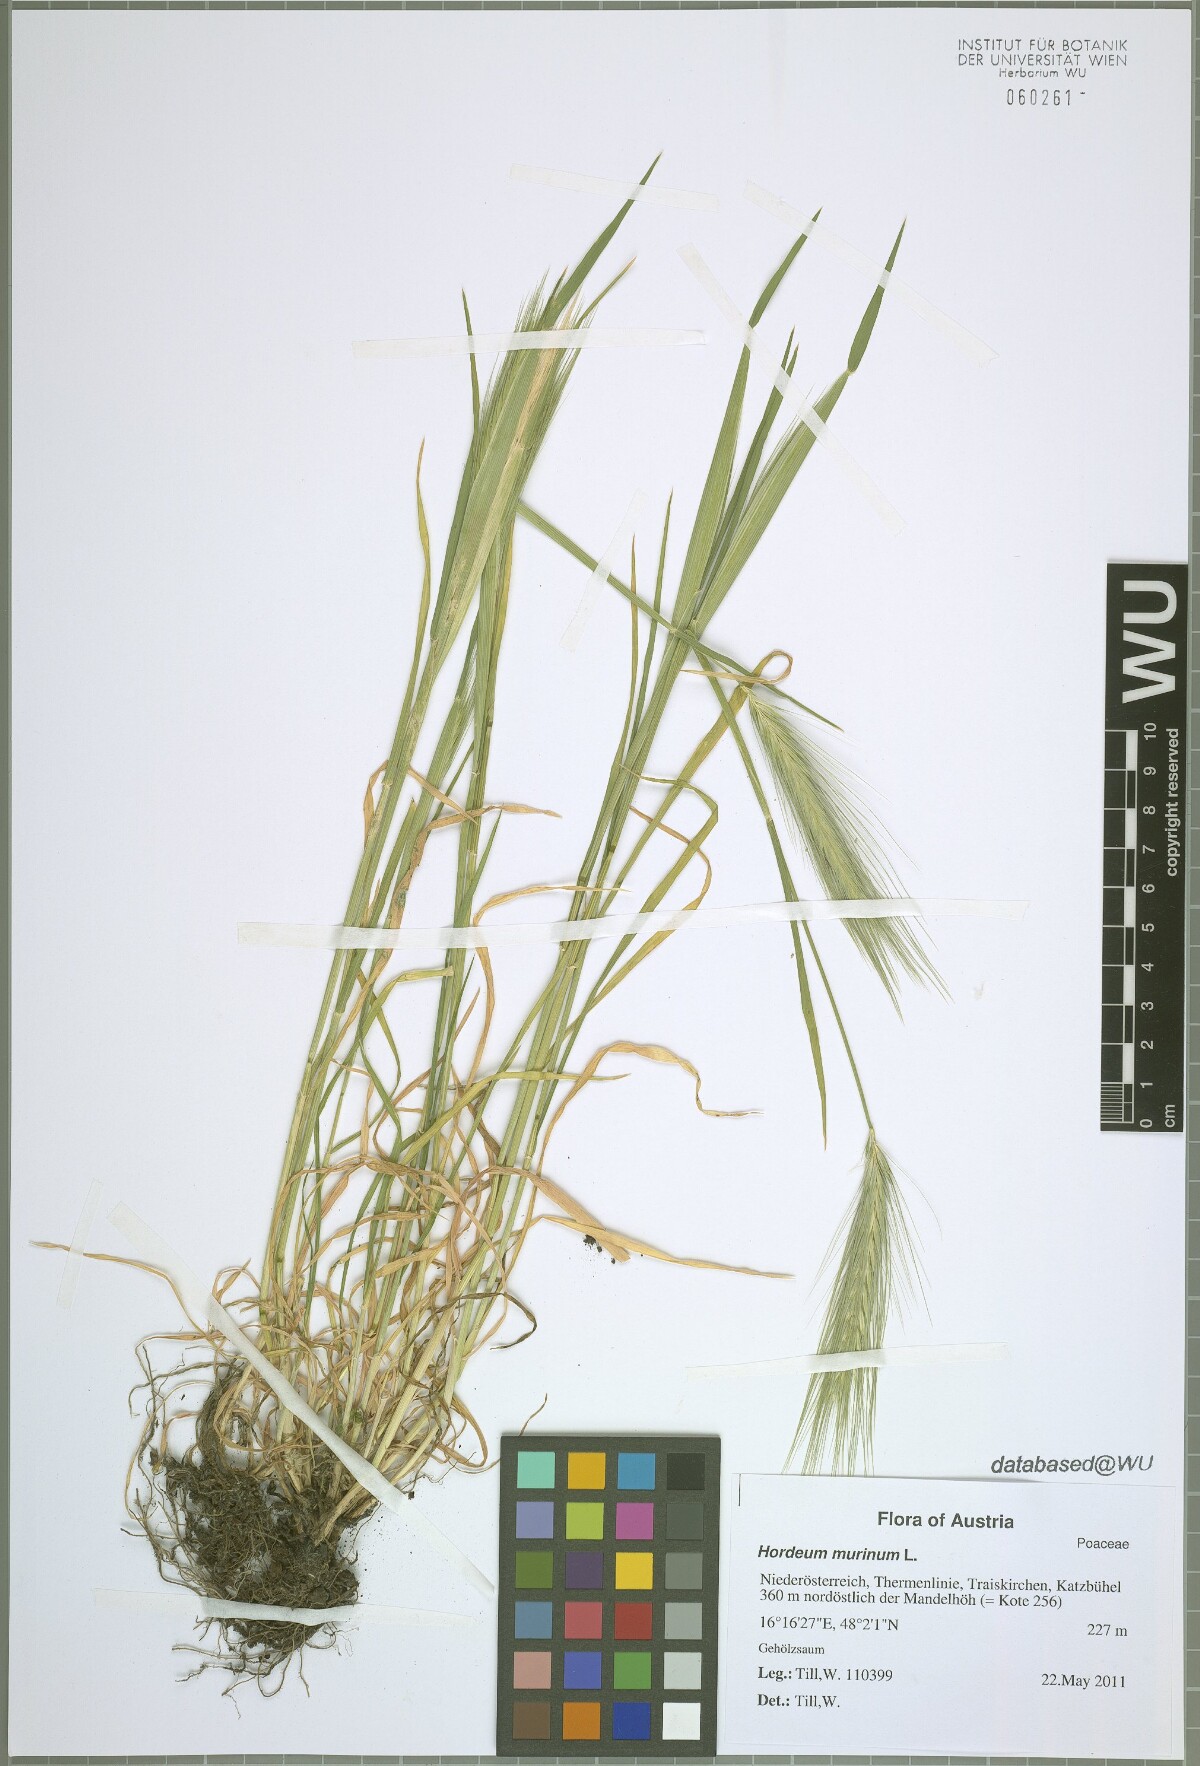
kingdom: Plantae
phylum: Tracheophyta
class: Liliopsida
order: Poales
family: Poaceae
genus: Hordeum
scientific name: Hordeum murinum
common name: Wall barley
